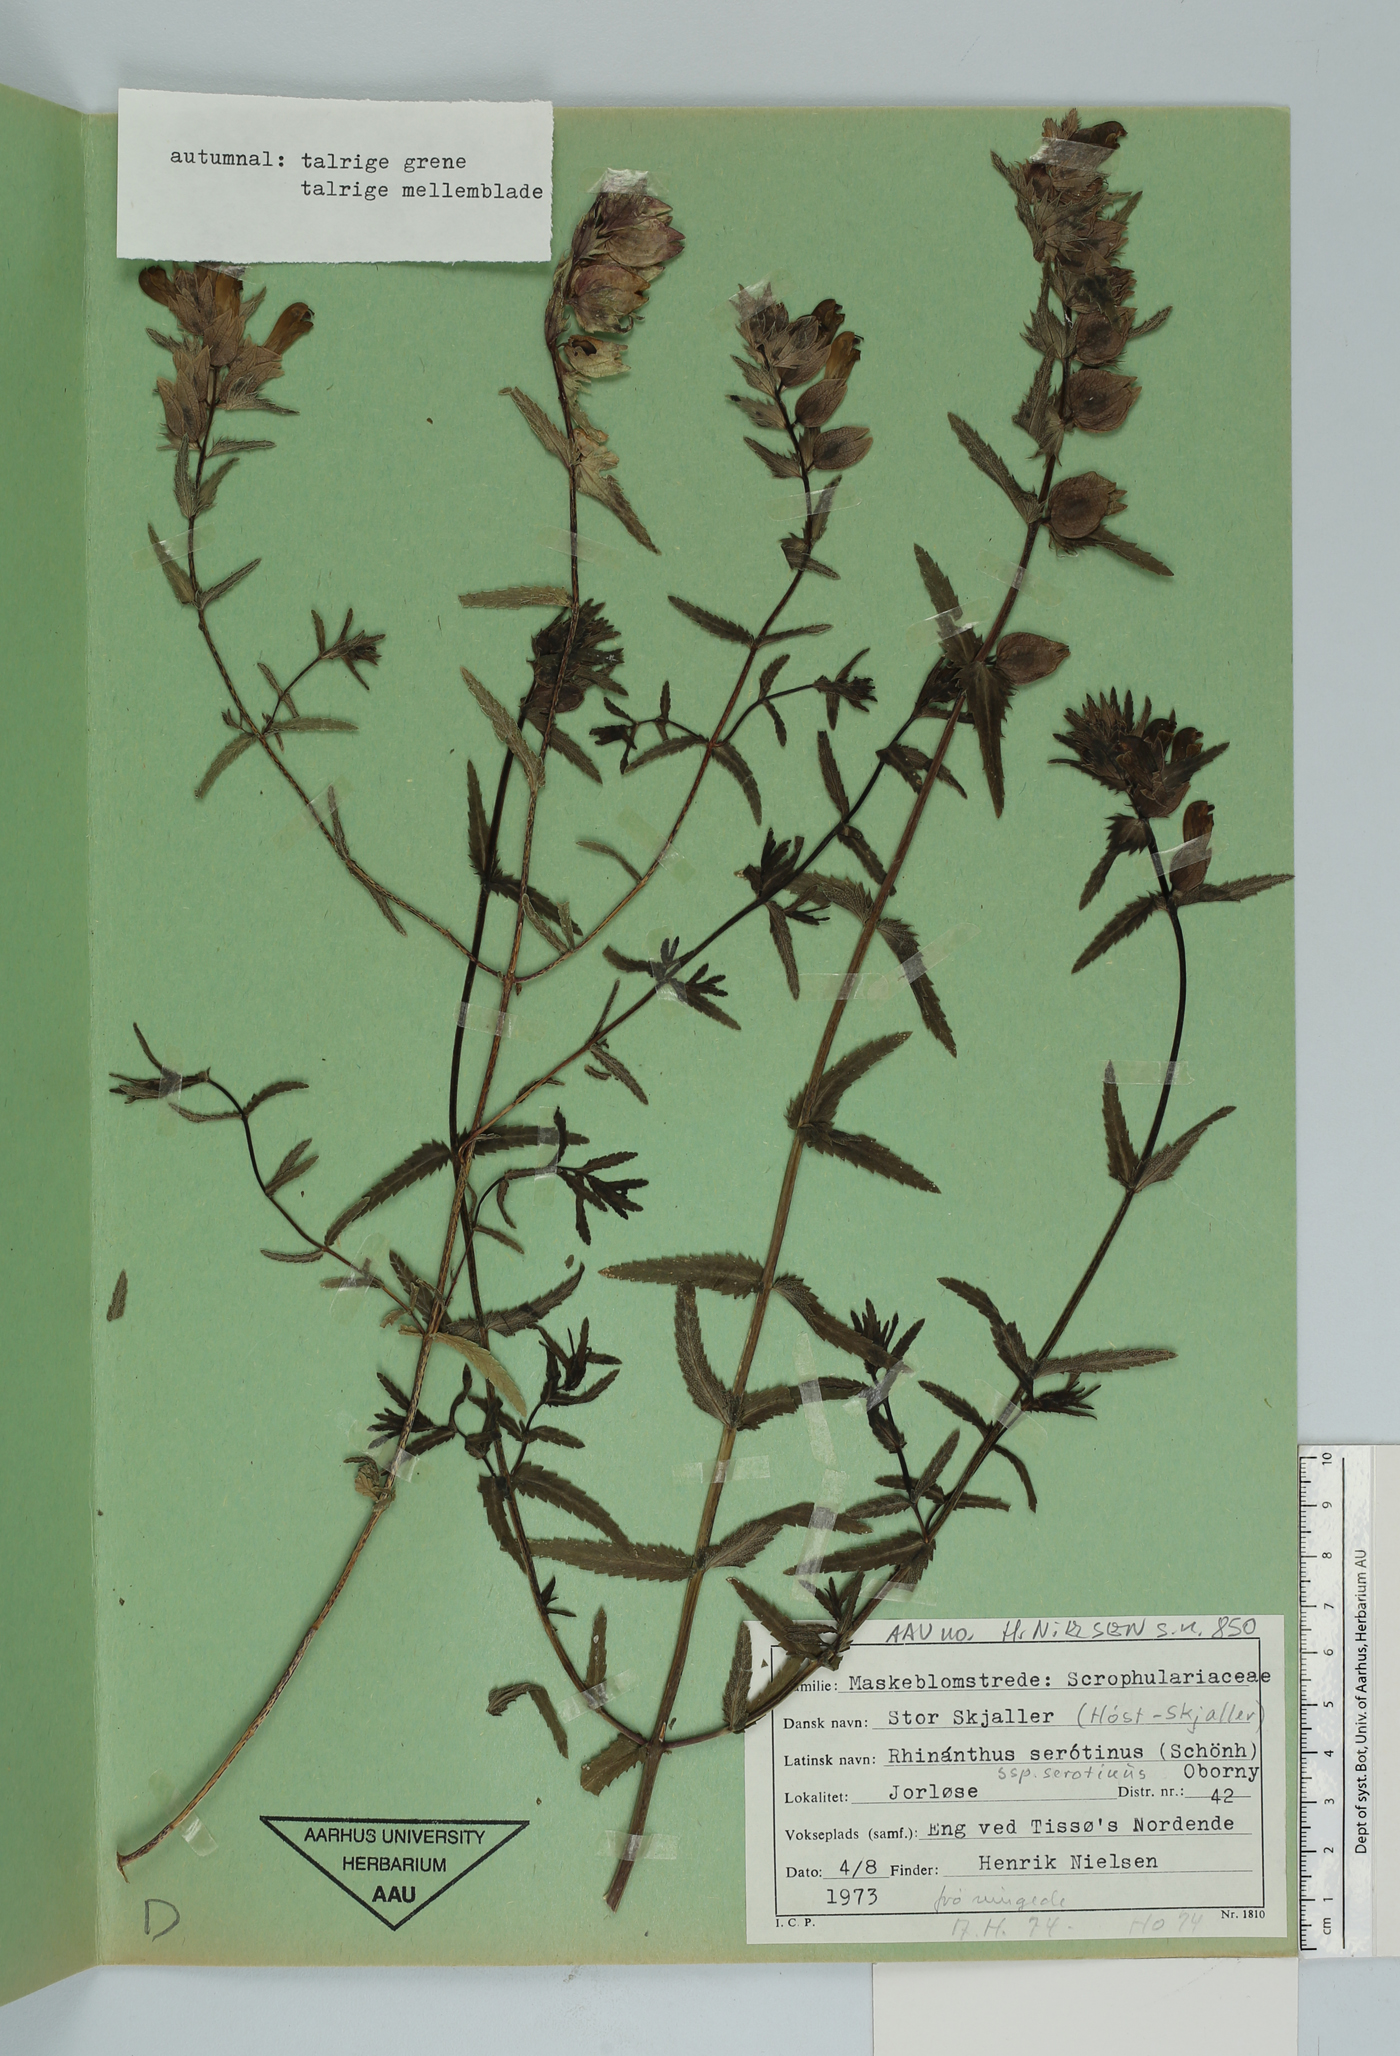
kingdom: Plantae
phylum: Tracheophyta
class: Magnoliopsida
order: Lamiales
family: Orobanchaceae
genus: Rhinanthus
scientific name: Rhinanthus serotinus
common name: Late-flowering yellow rattle
